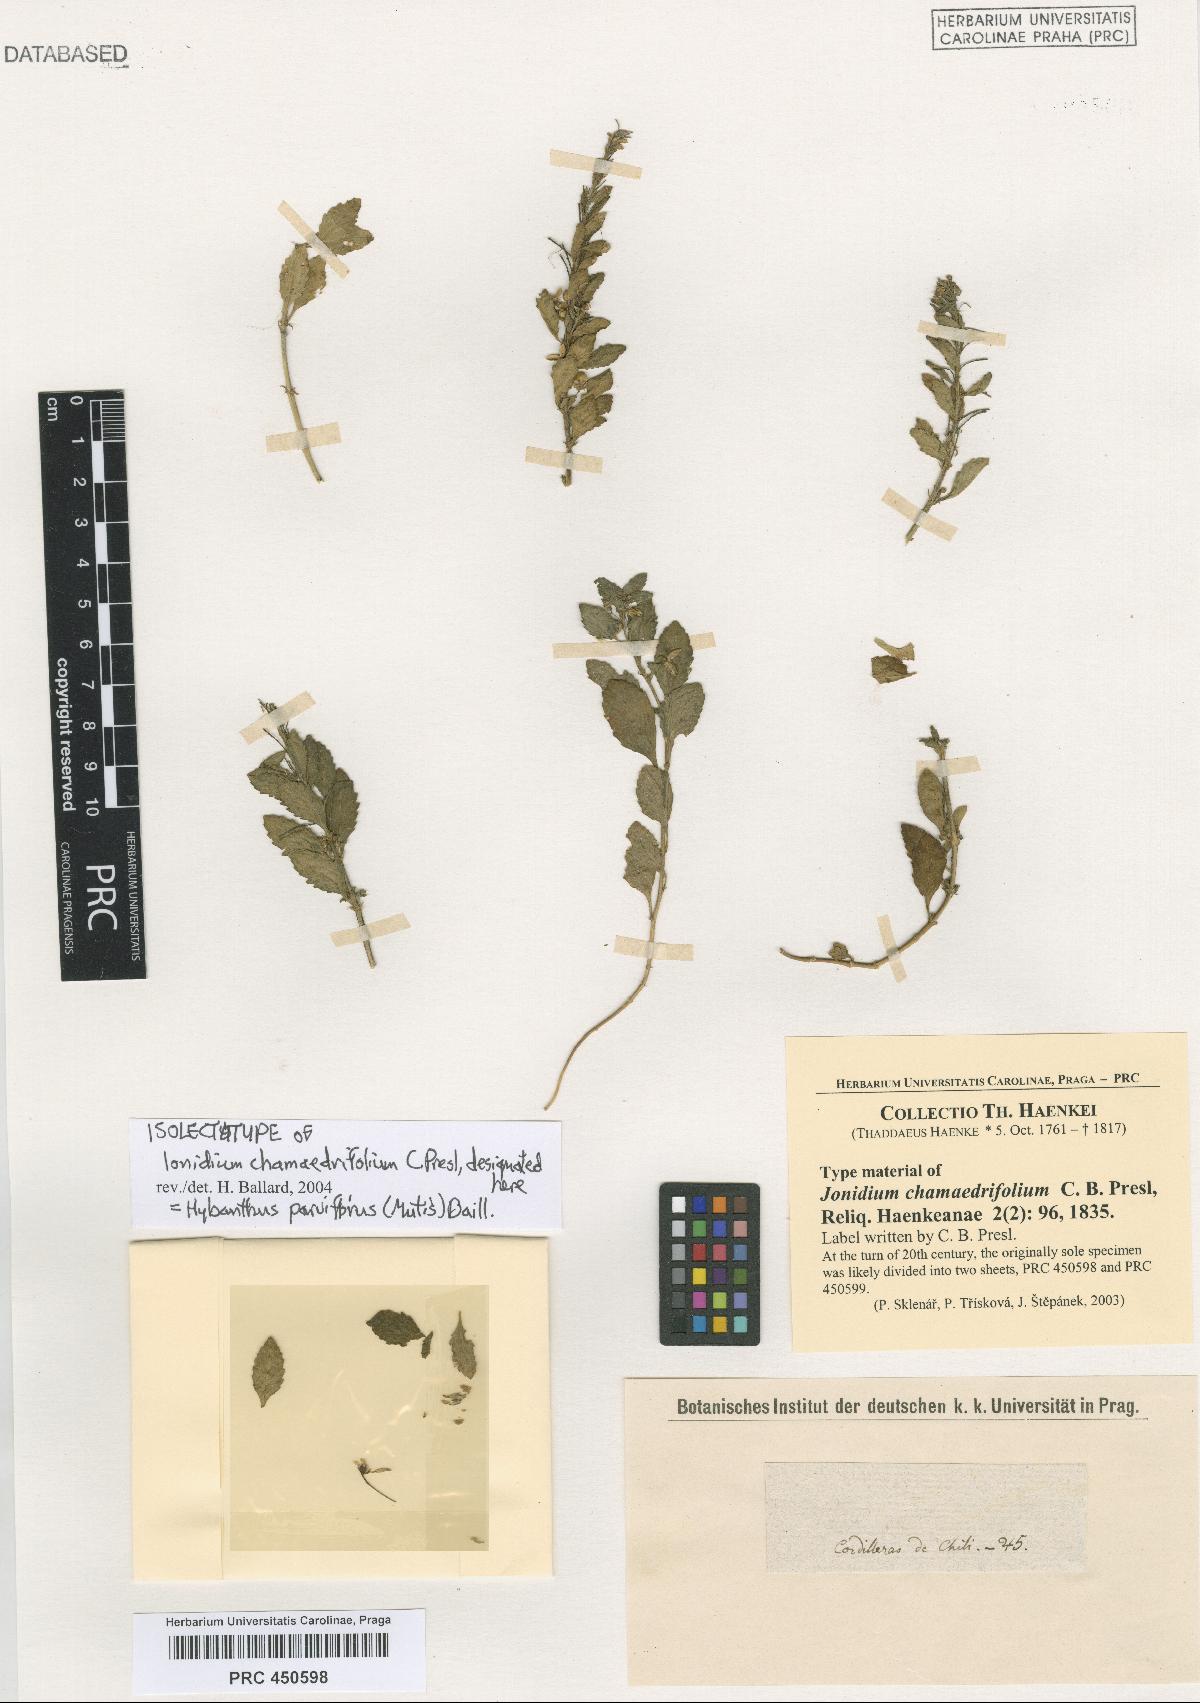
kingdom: Plantae
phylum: Tracheophyta
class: Magnoliopsida
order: Malpighiales
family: Violaceae
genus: Pombalia
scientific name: Pombalia parviflora
